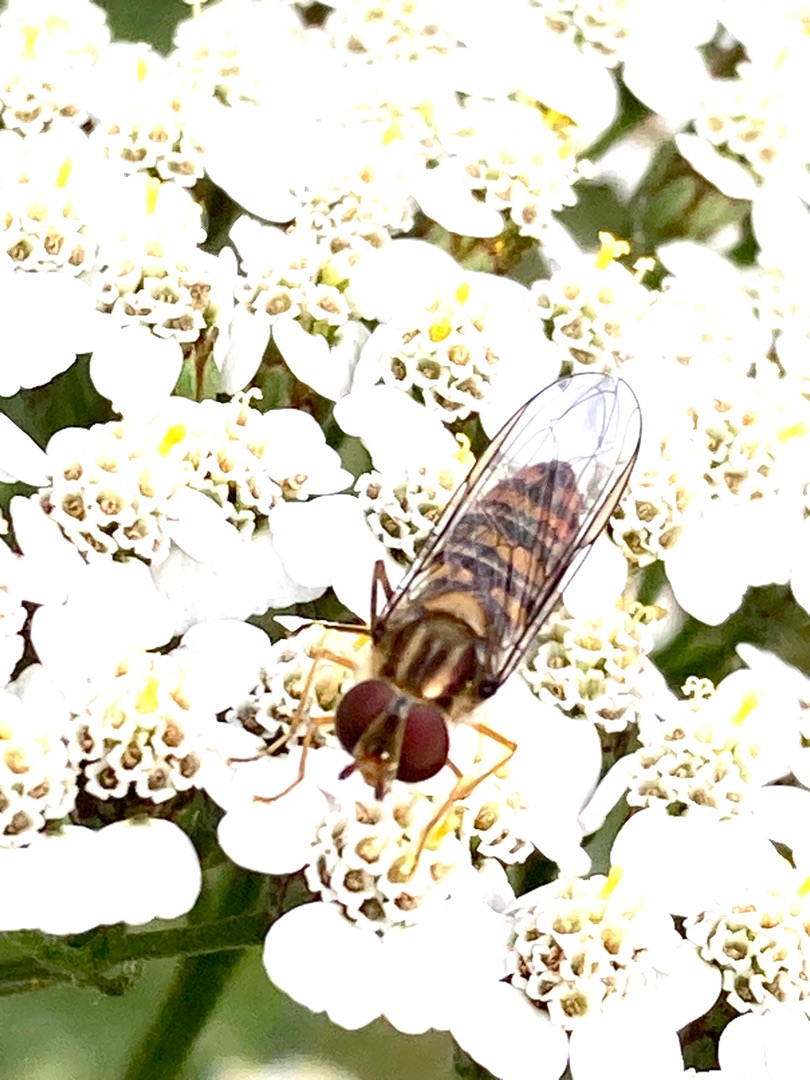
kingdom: Animalia
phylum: Arthropoda
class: Insecta
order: Diptera
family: Syrphidae
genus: Episyrphus
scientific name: Episyrphus balteatus
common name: Dobbeltbåndet svirreflue
